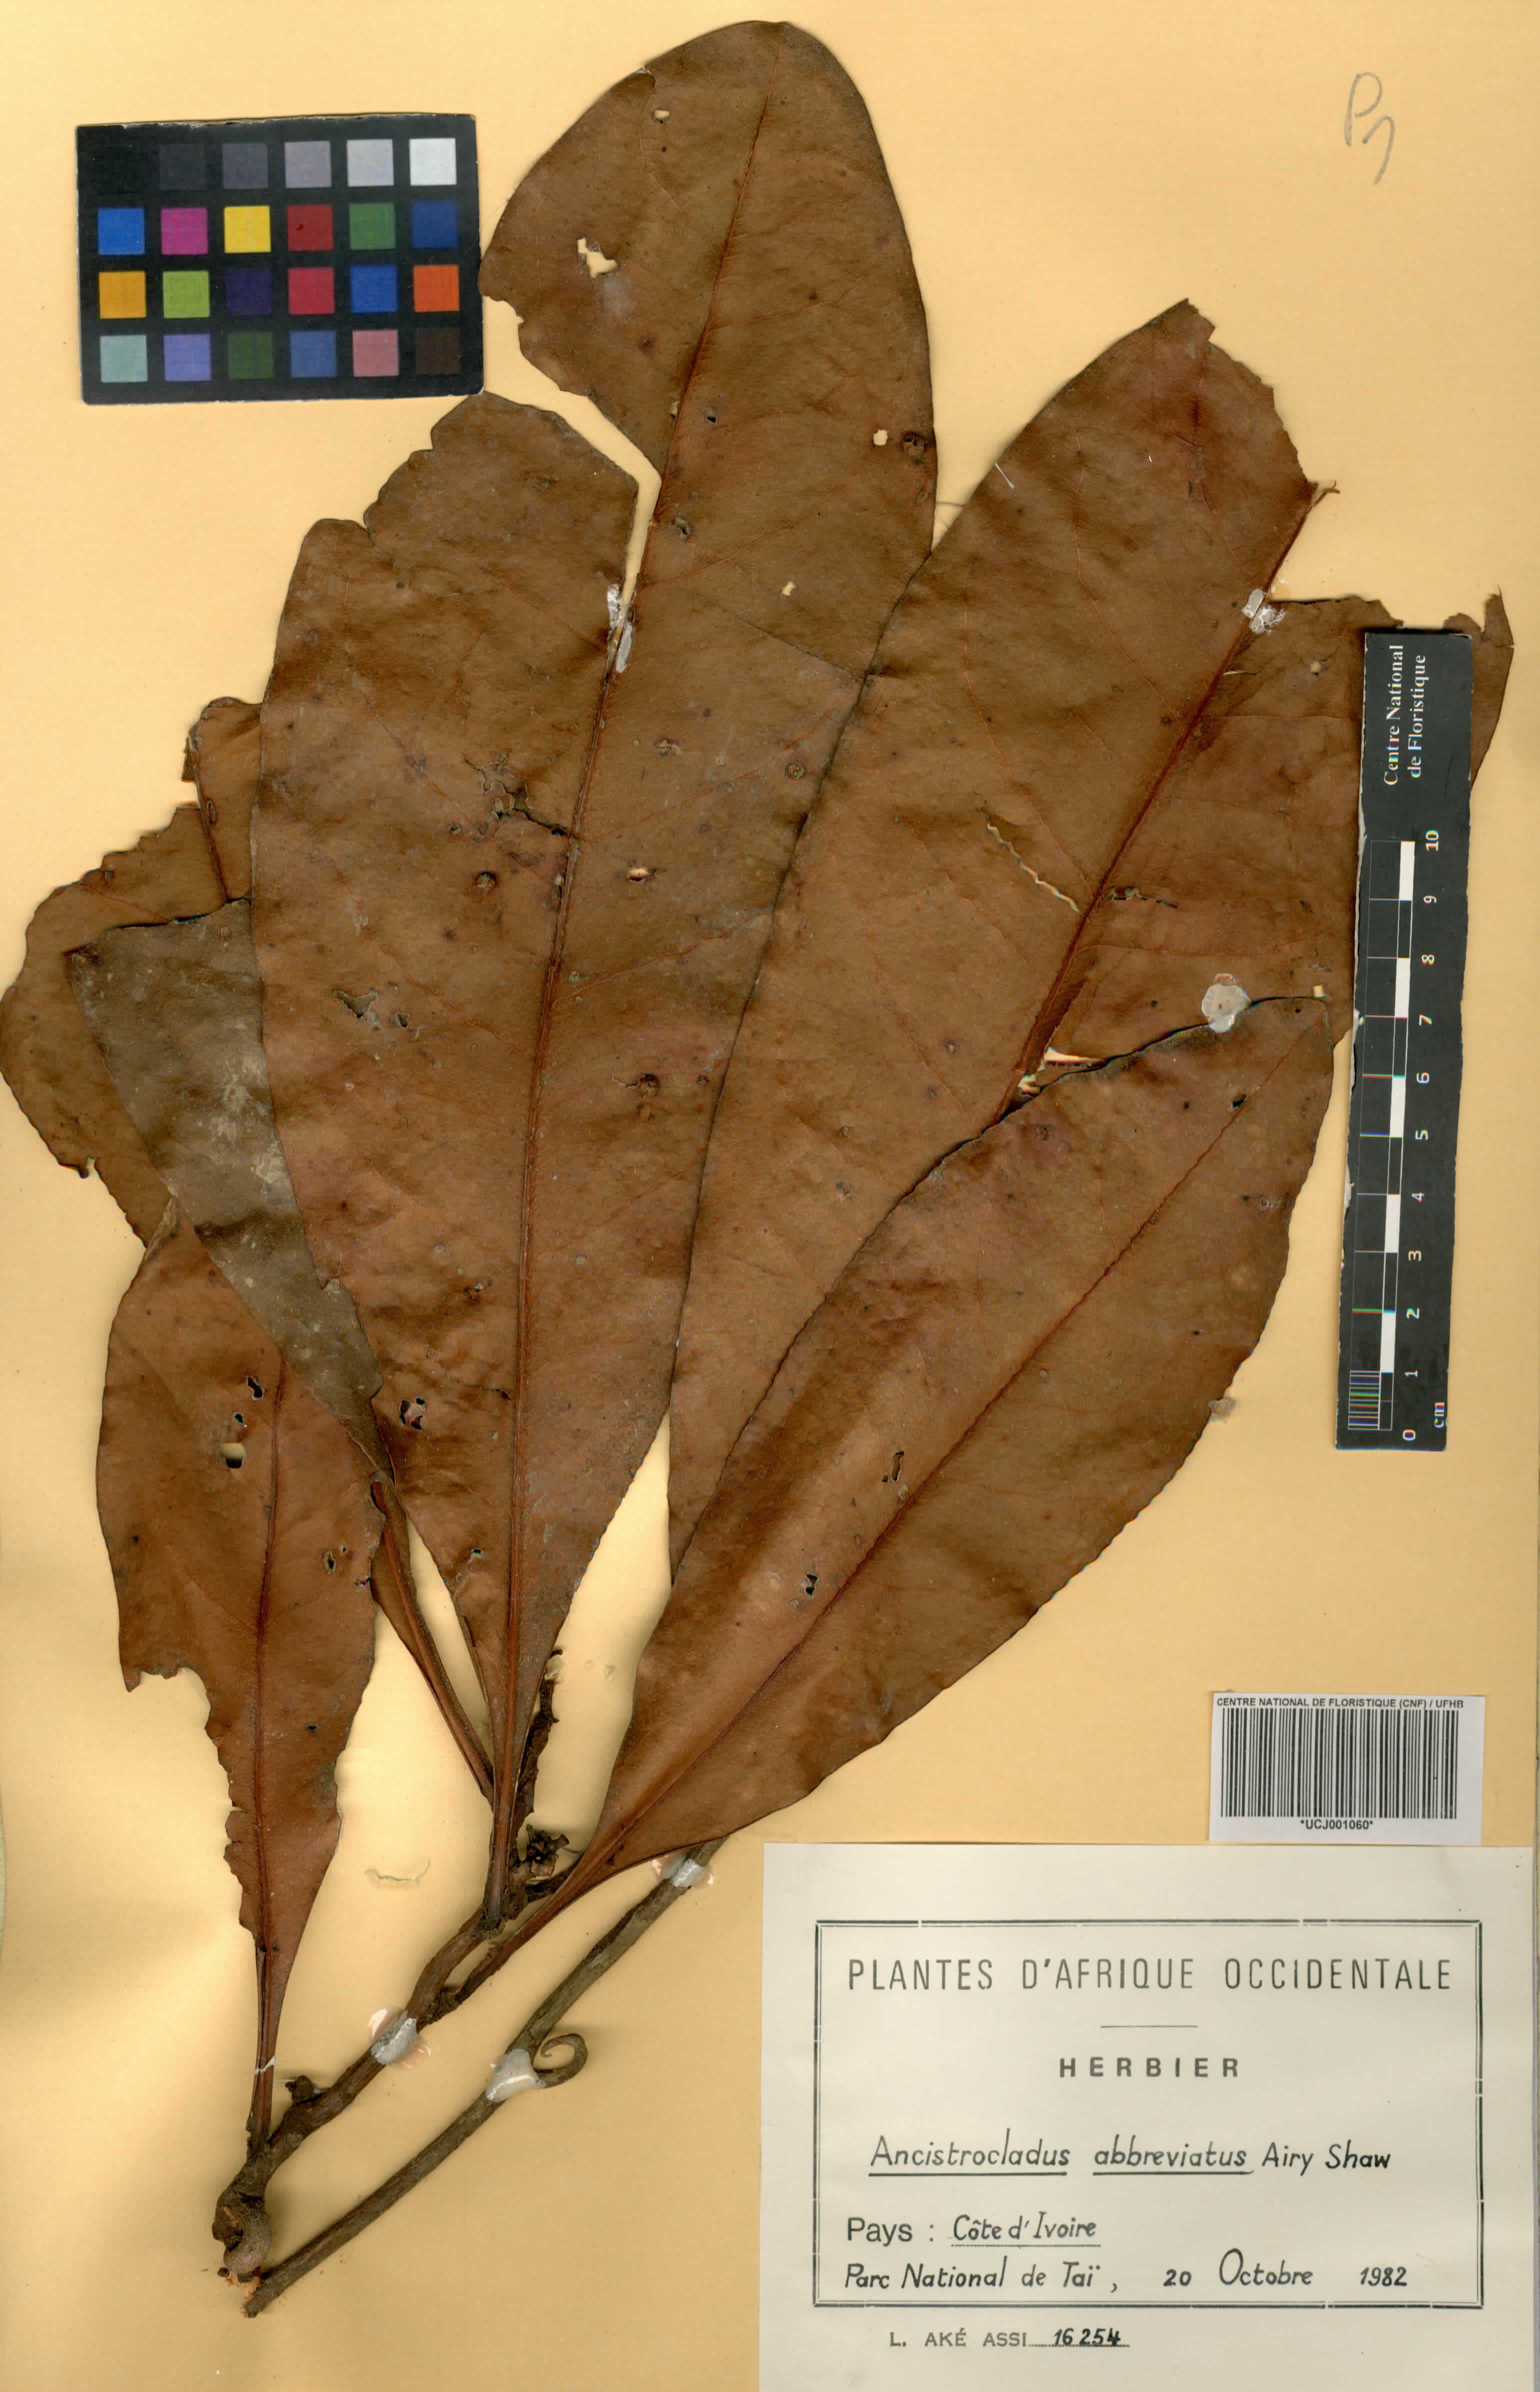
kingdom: Plantae
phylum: Tracheophyta
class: Magnoliopsida
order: Caryophyllales
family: Ancistrocladaceae
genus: Ancistrocladus
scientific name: Ancistrocladus abbreviatus
